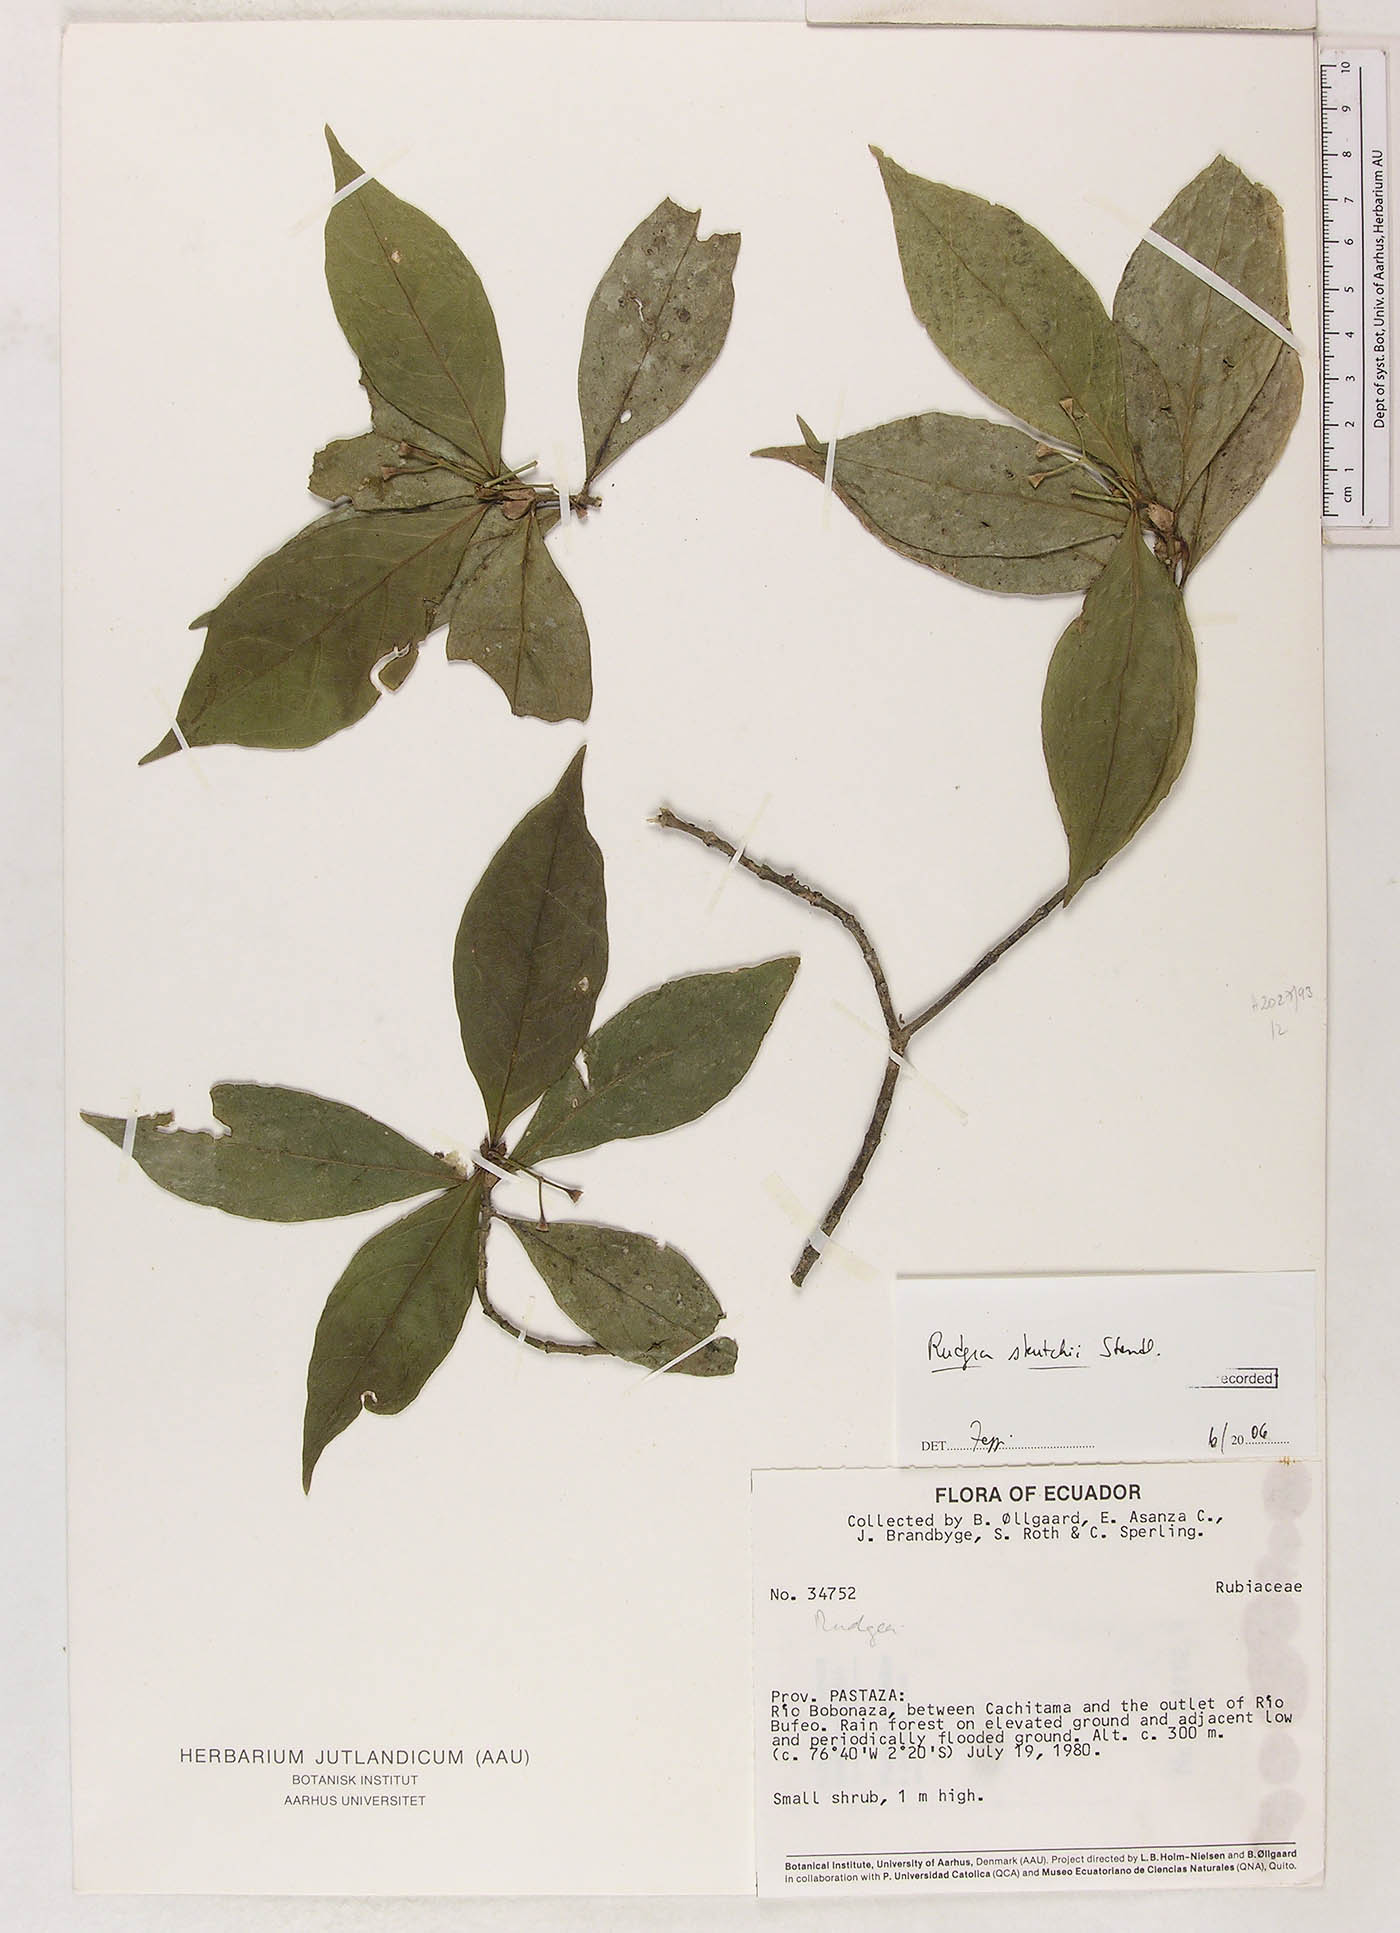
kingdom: Plantae
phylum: Tracheophyta
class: Magnoliopsida
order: Gentianales
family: Rubiaceae
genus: Rudgea
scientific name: Rudgea skutchii
